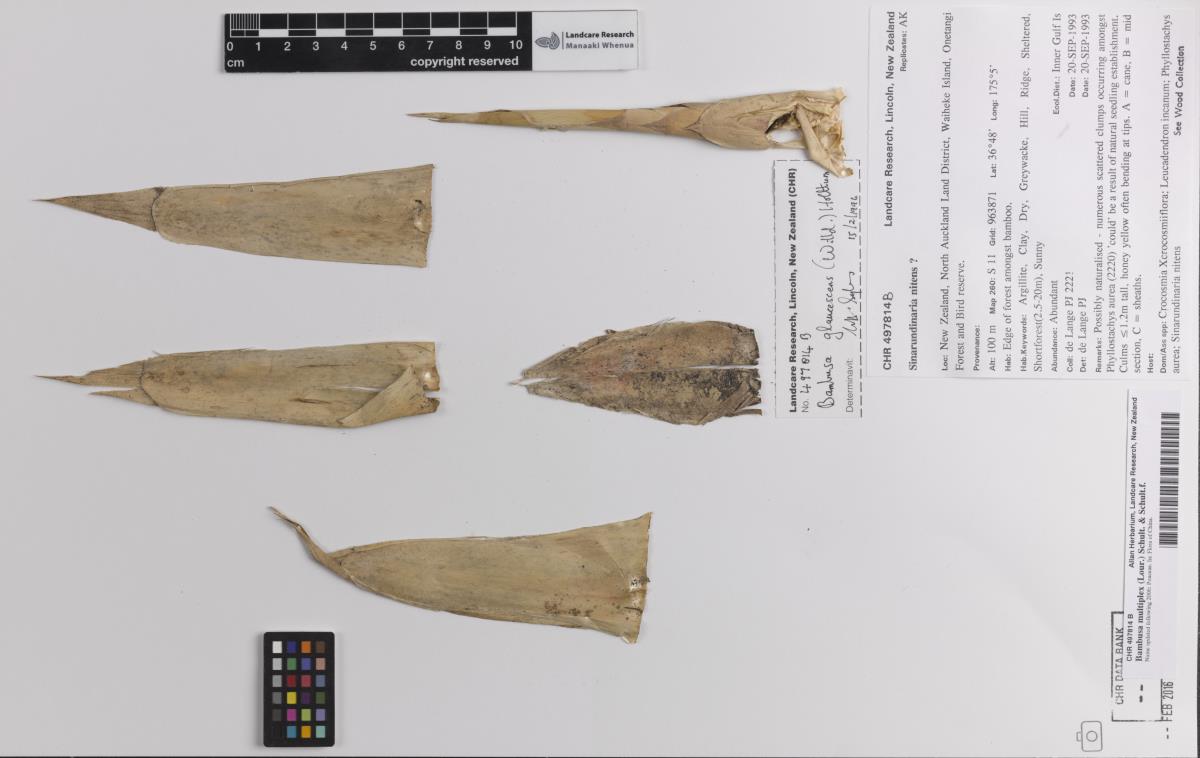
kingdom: Plantae
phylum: Tracheophyta
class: Liliopsida
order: Poales
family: Poaceae
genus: Bambusa
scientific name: Bambusa multiplex
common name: Hedge bamboo
